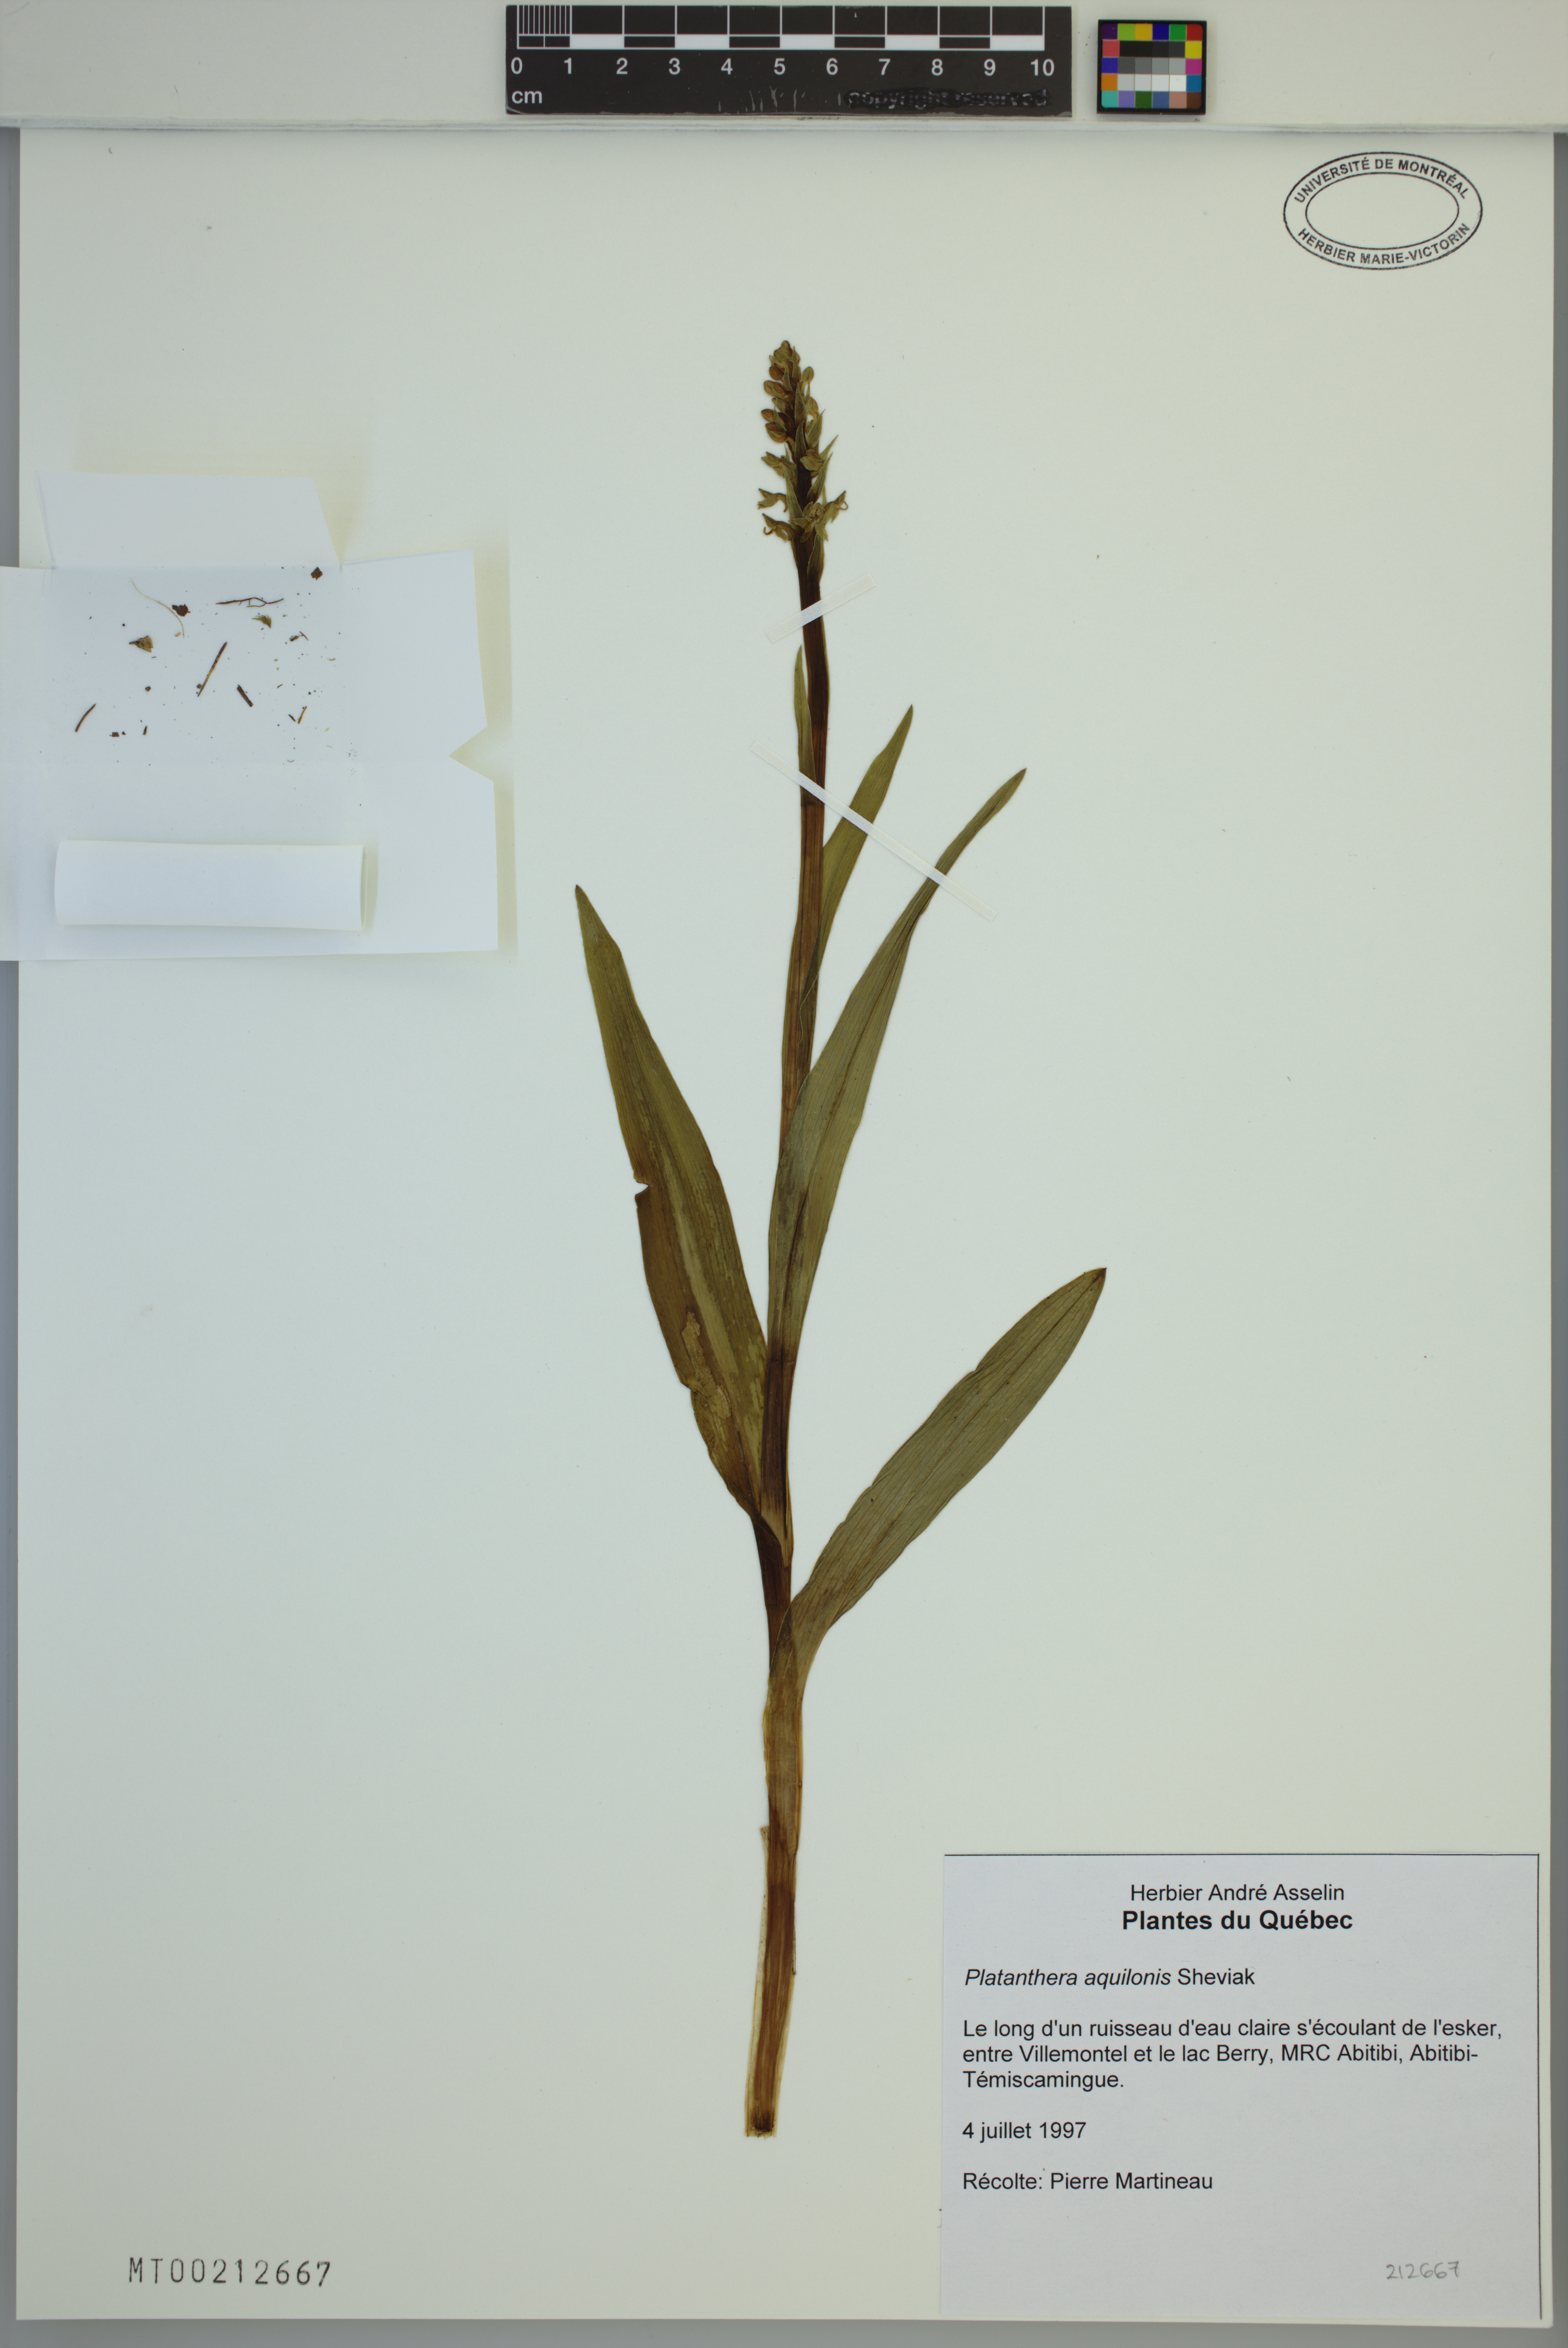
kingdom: Plantae
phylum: Tracheophyta
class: Liliopsida
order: Asparagales
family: Orchidaceae
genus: Platanthera
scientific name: Platanthera aquilonis
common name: Northern green orchid
